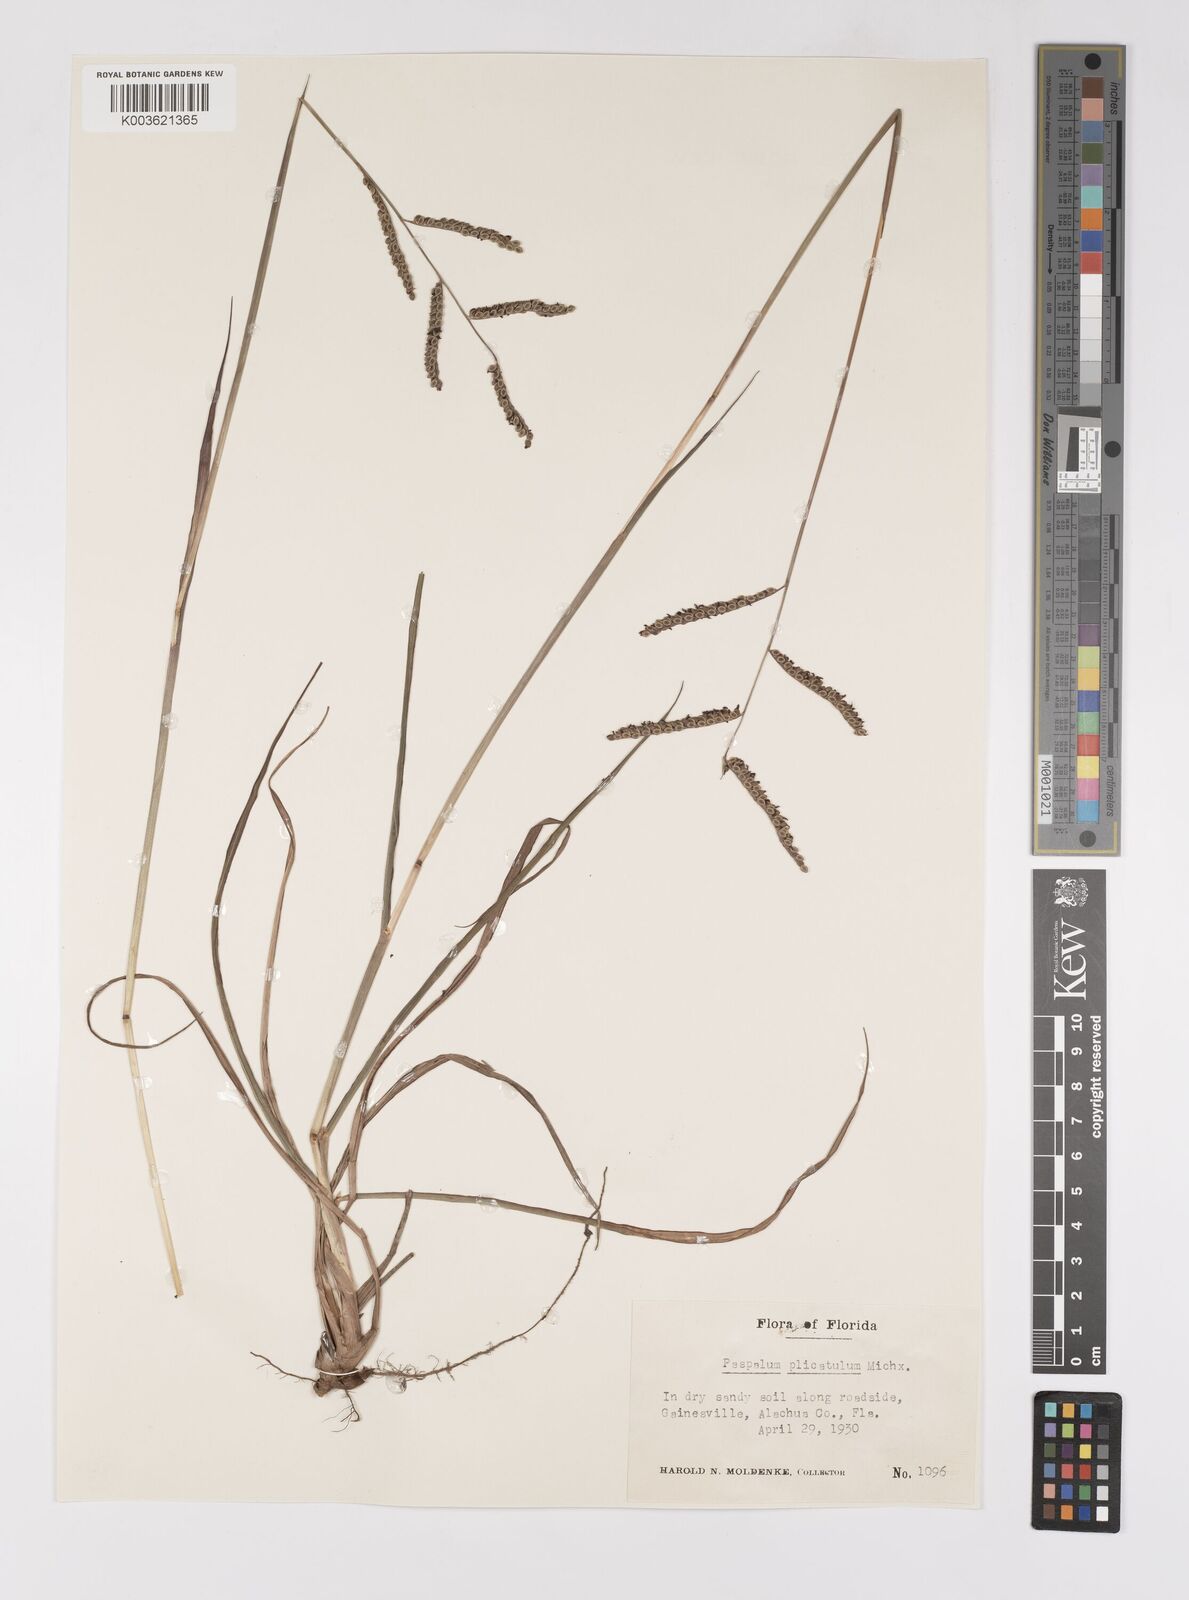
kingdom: Plantae
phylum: Tracheophyta
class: Liliopsida
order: Poales
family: Poaceae
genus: Paspalum
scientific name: Paspalum plicatulum
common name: Top paspalum
